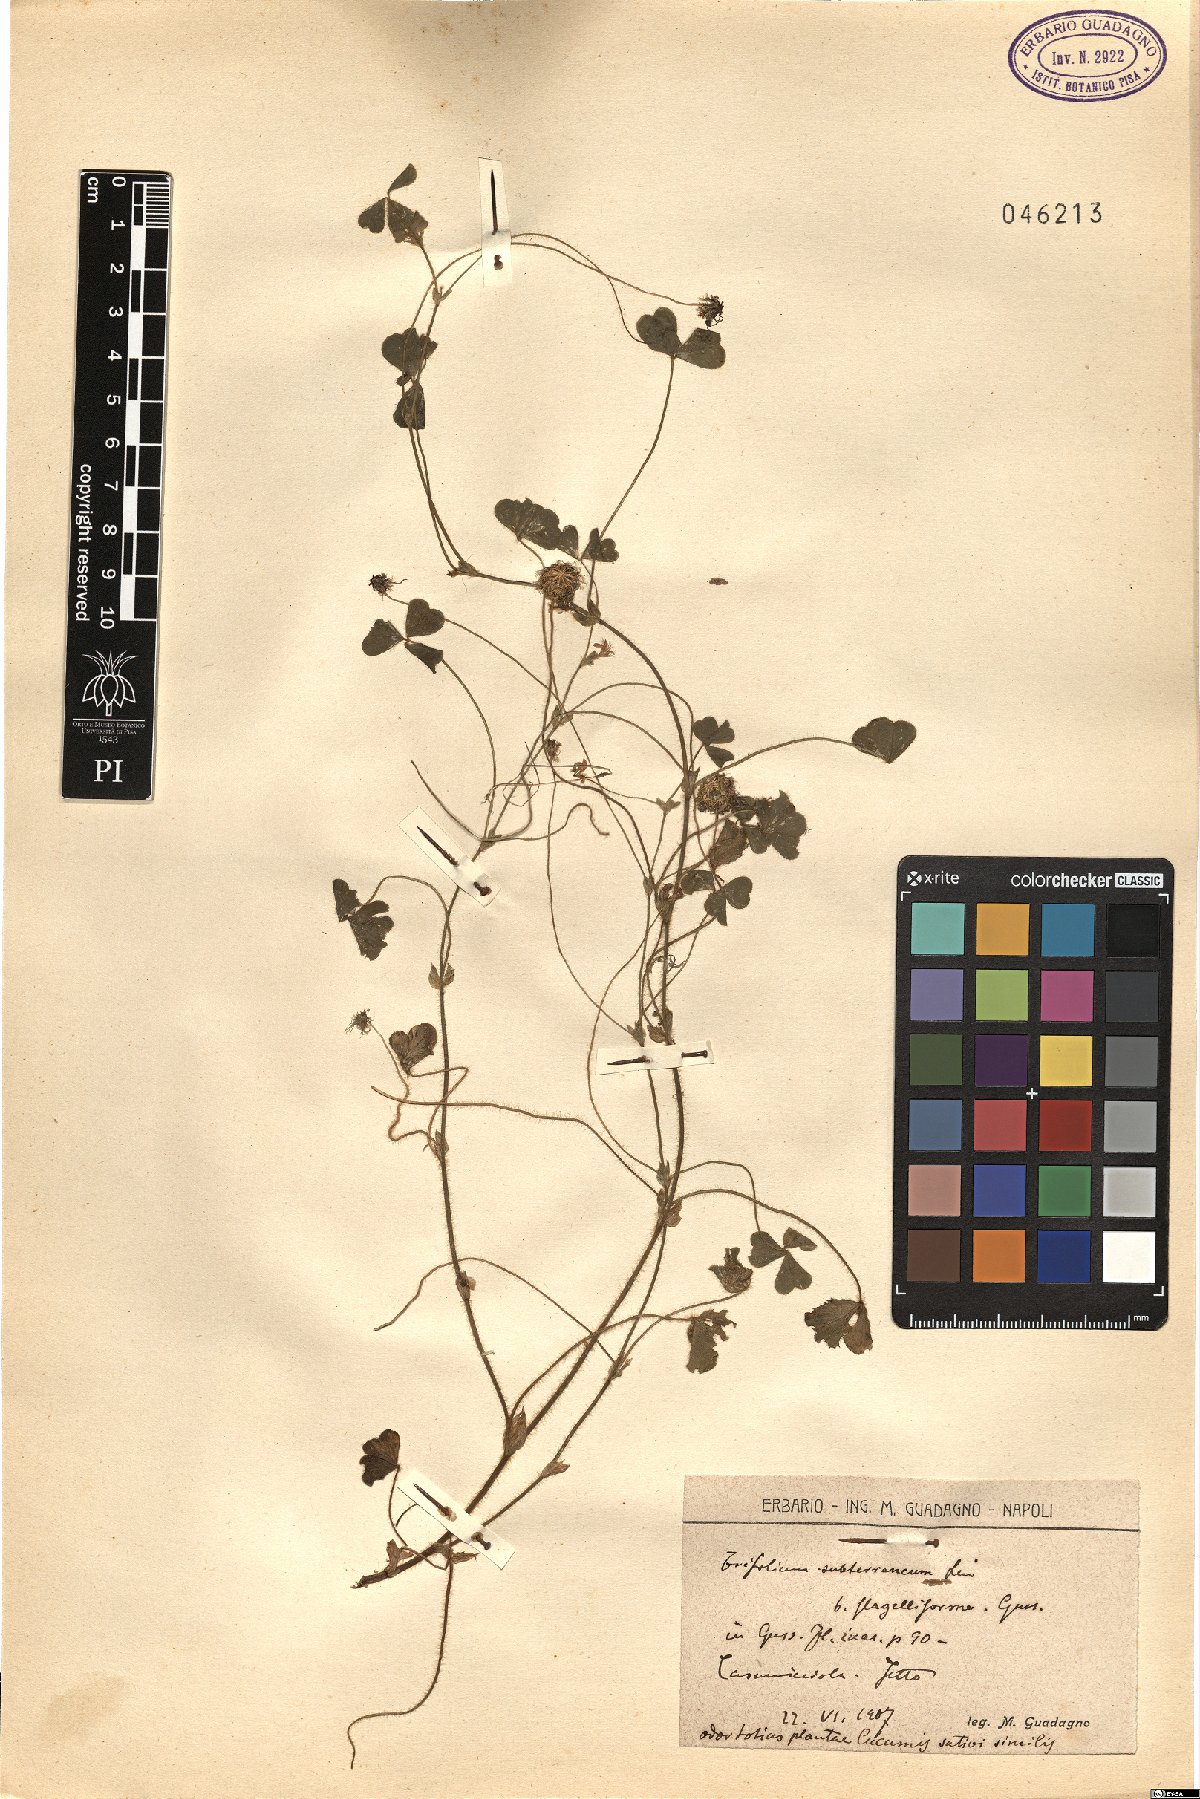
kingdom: Plantae
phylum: Tracheophyta
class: Magnoliopsida
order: Fabales
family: Fabaceae
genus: Trifolium
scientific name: Trifolium subterraneum
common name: Subterranean clover
